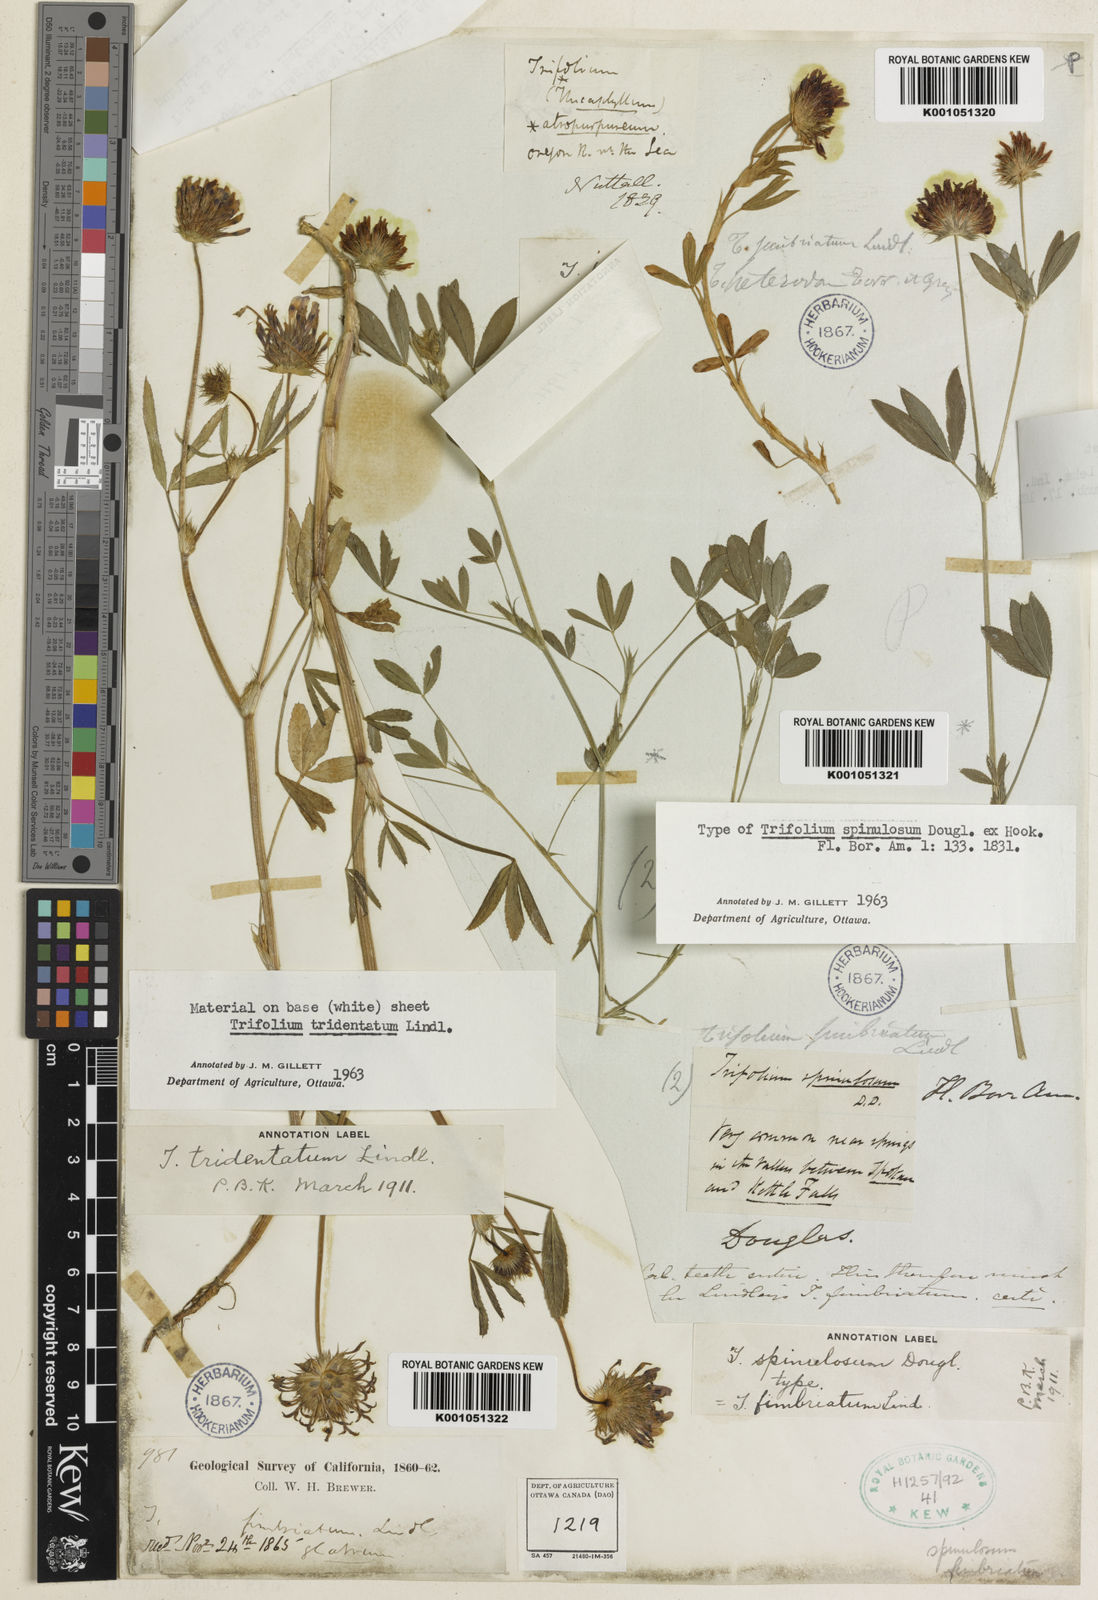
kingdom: Plantae
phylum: Tracheophyta
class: Magnoliopsida
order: Fabales
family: Fabaceae
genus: Trifolium
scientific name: Trifolium willdenovii
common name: Tomcat clover
